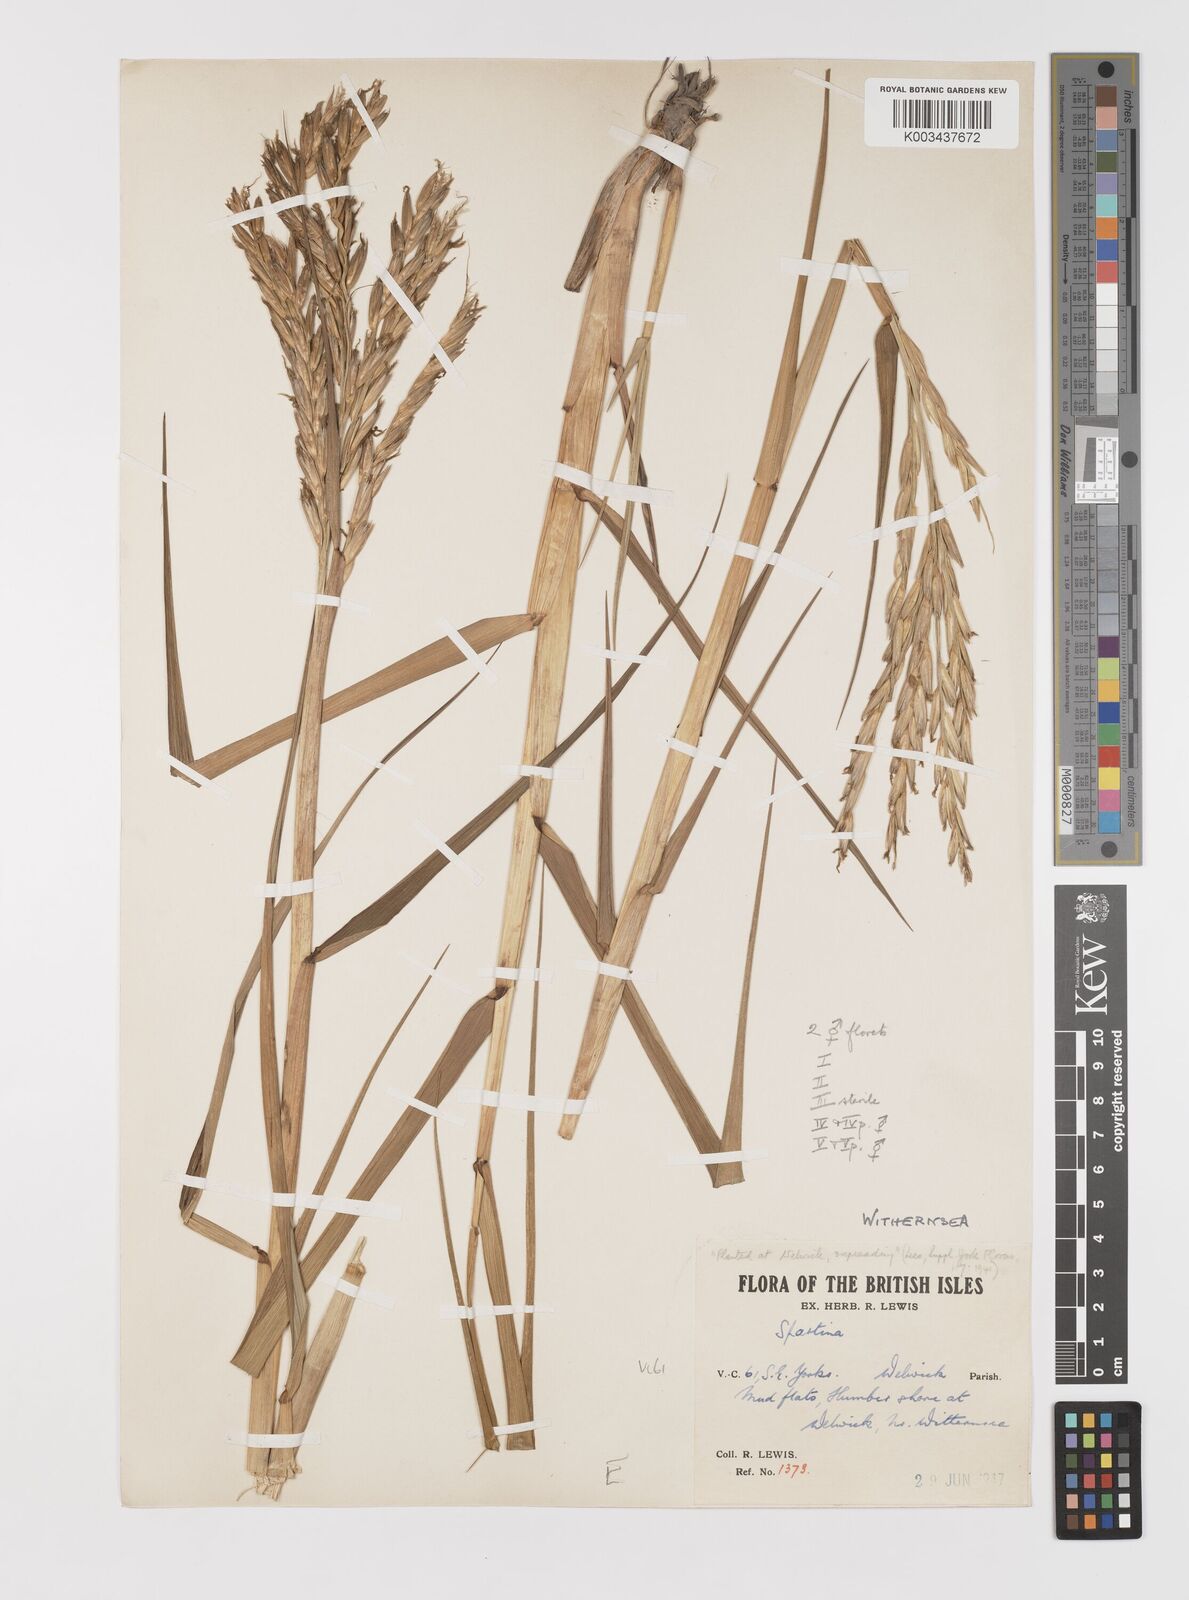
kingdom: Plantae
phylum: Tracheophyta
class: Liliopsida
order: Poales
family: Poaceae
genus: Sporobolus
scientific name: Sporobolus anglicus
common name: English cordgrass
